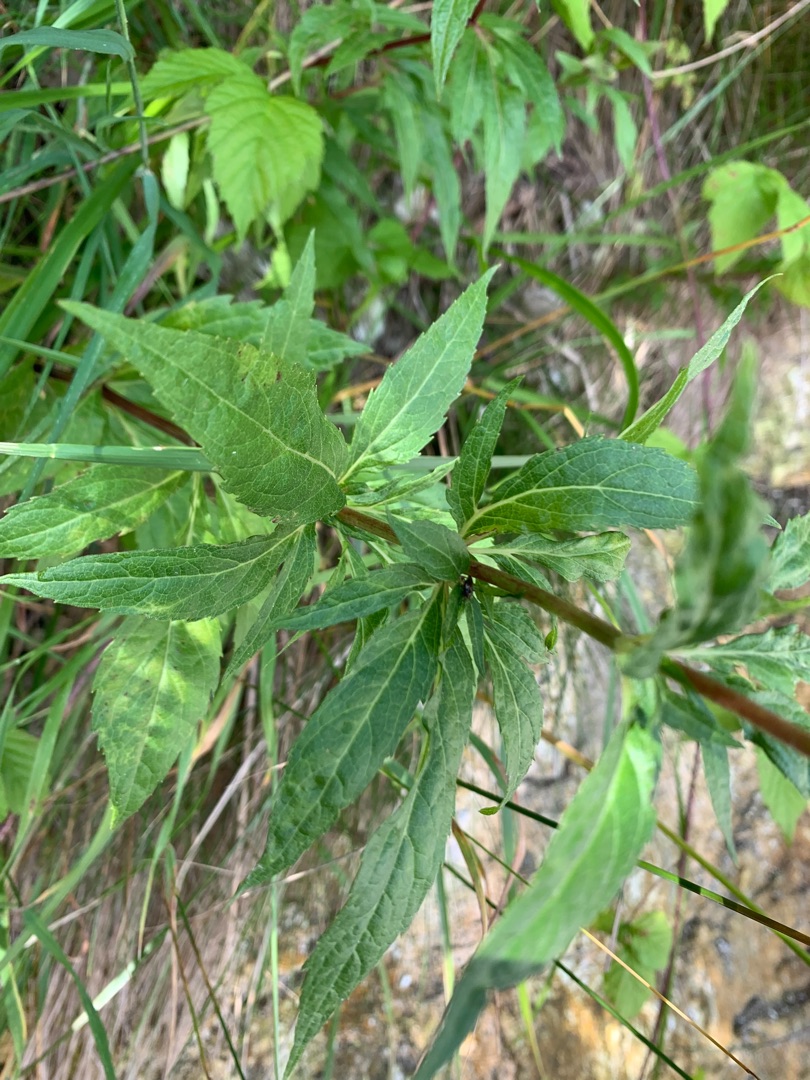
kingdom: Plantae
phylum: Tracheophyta
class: Magnoliopsida
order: Asterales
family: Asteraceae
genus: Eupatorium
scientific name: Eupatorium cannabinum
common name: Hjortetrøst
